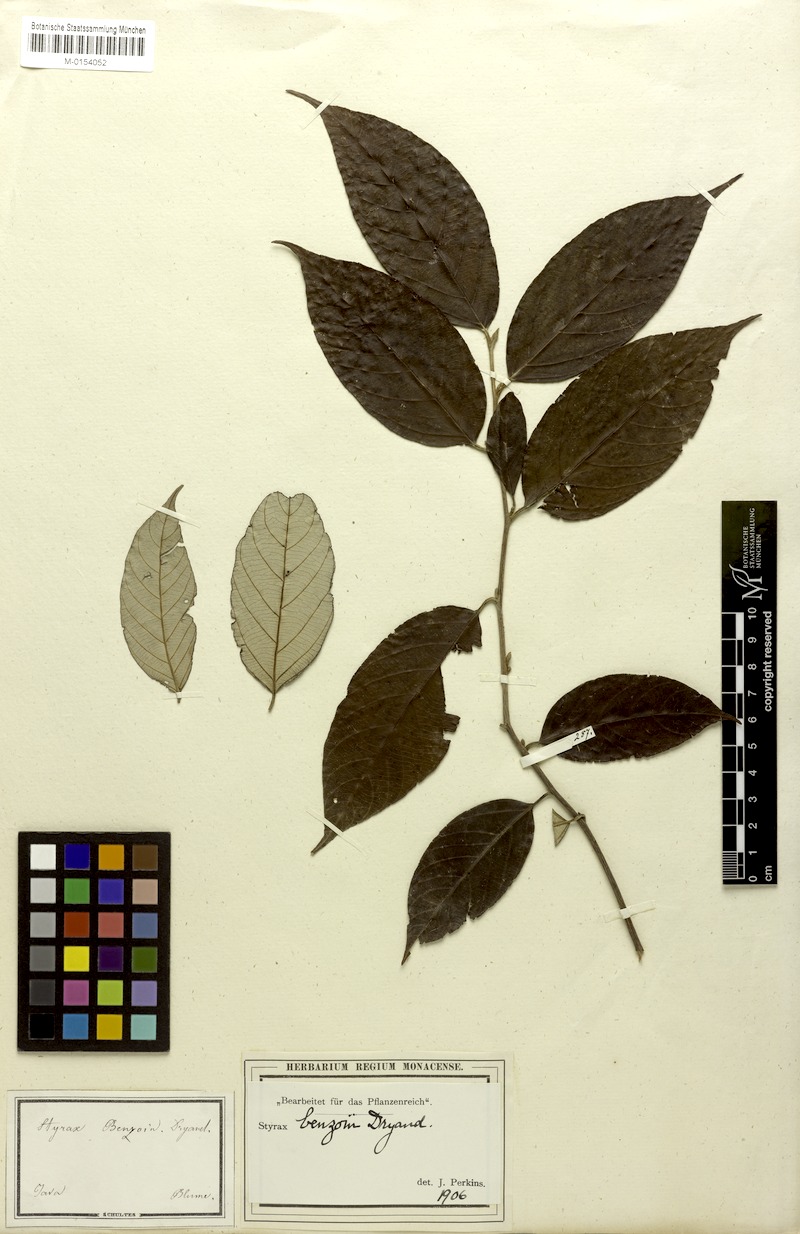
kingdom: Plantae
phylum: Tracheophyta
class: Magnoliopsida
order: Ericales
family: Styracaceae
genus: Styrax
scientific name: Styrax benzoin
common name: Sumatra benzointree
